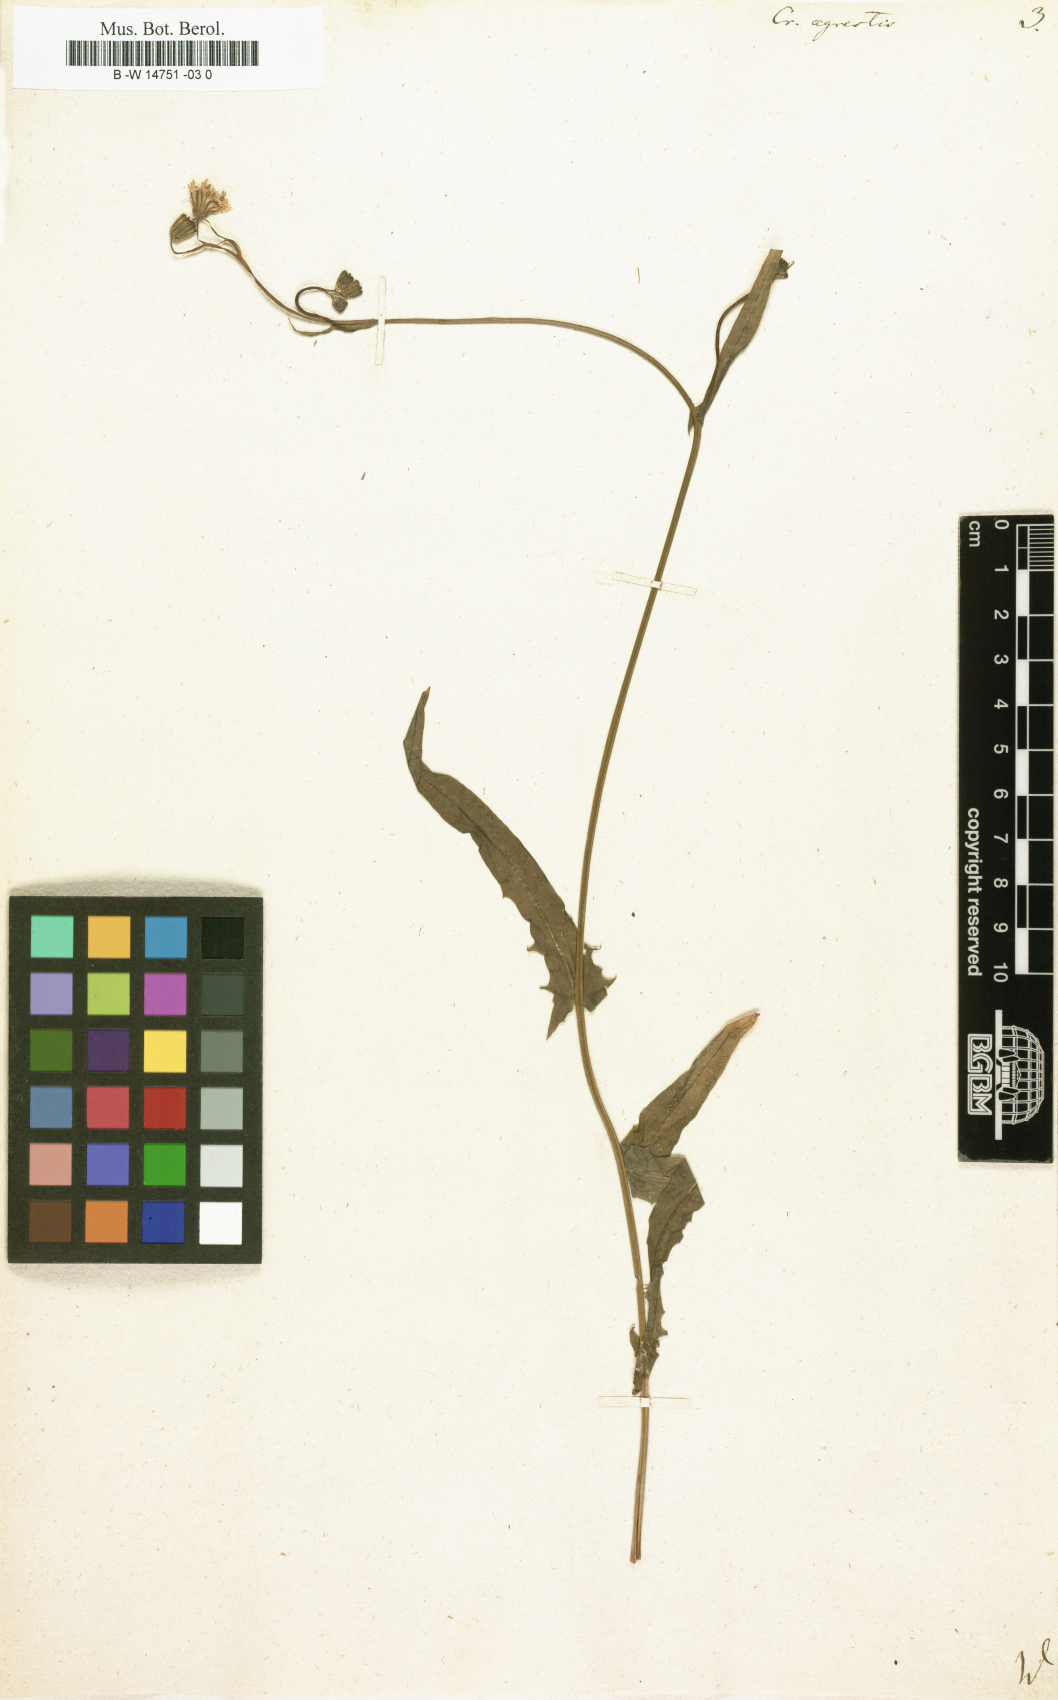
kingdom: Plantae
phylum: Tracheophyta
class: Magnoliopsida
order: Asterales
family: Asteraceae
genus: Crepis
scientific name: Crepis
